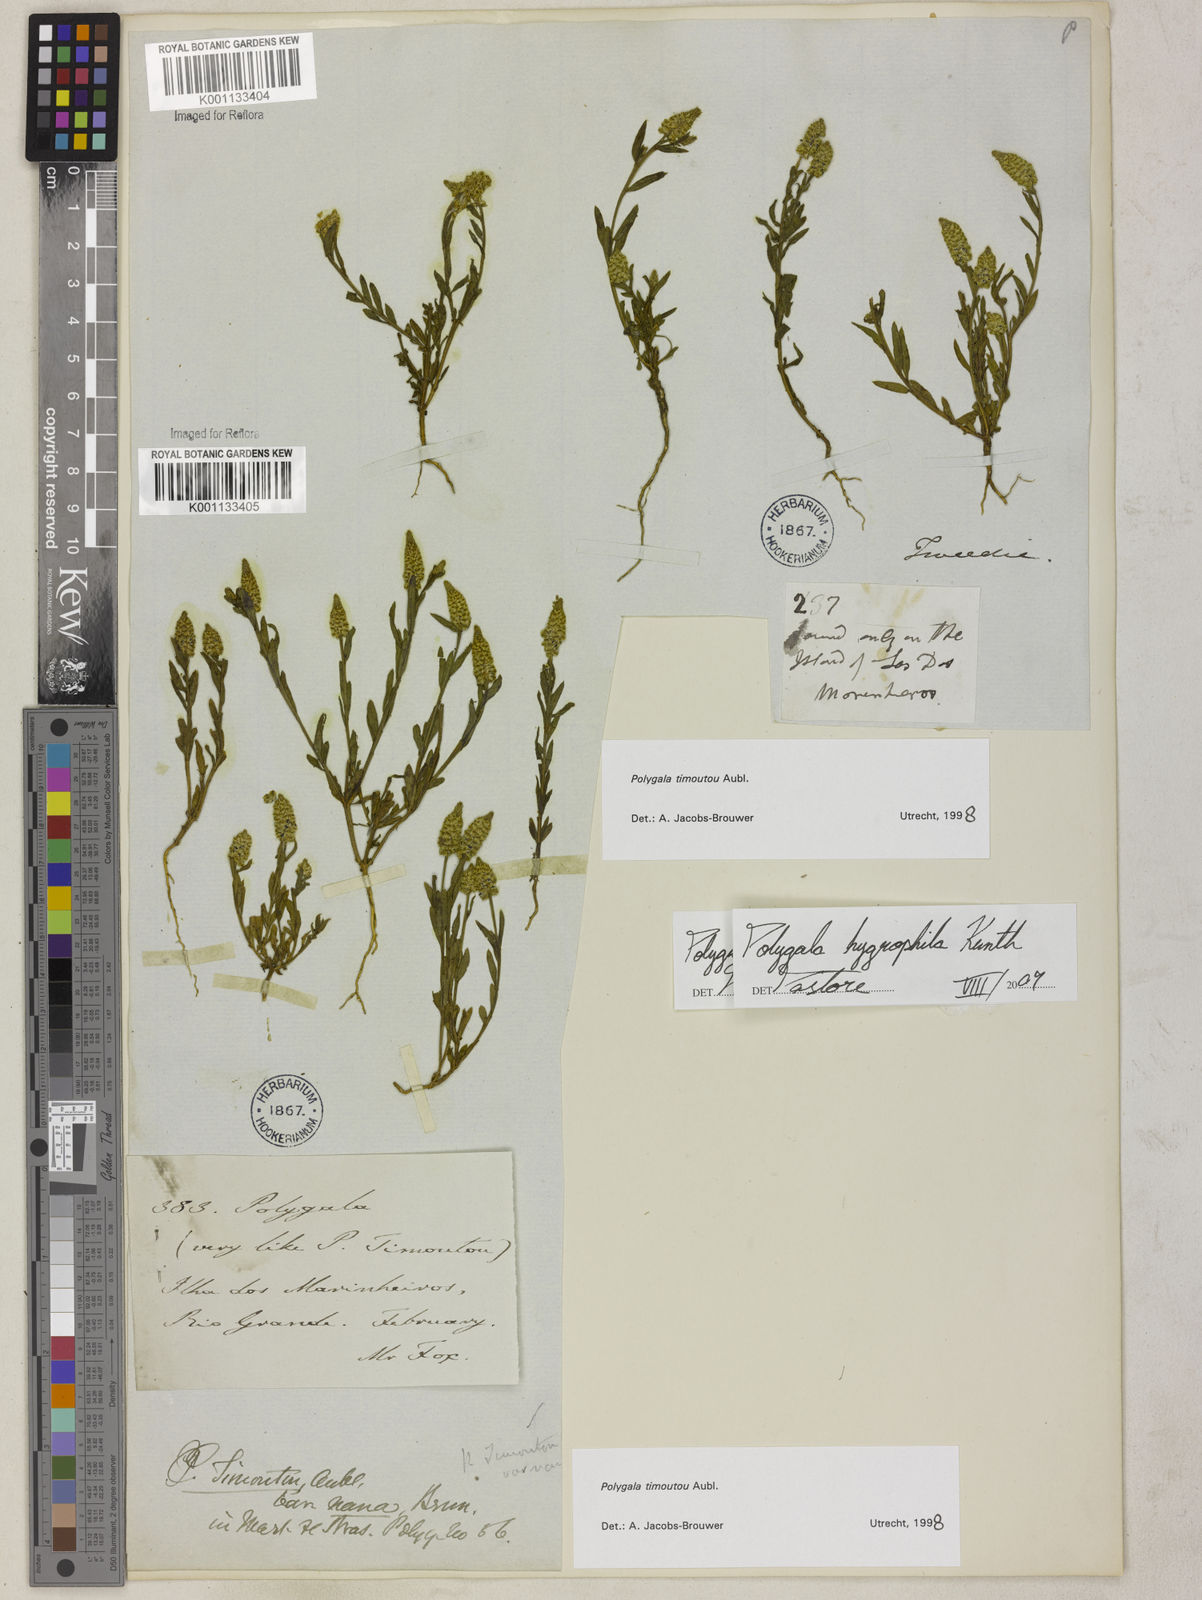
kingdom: Plantae
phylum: Tracheophyta
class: Magnoliopsida
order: Fabales
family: Polygalaceae
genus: Polygala
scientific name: Polygala hygrophila
